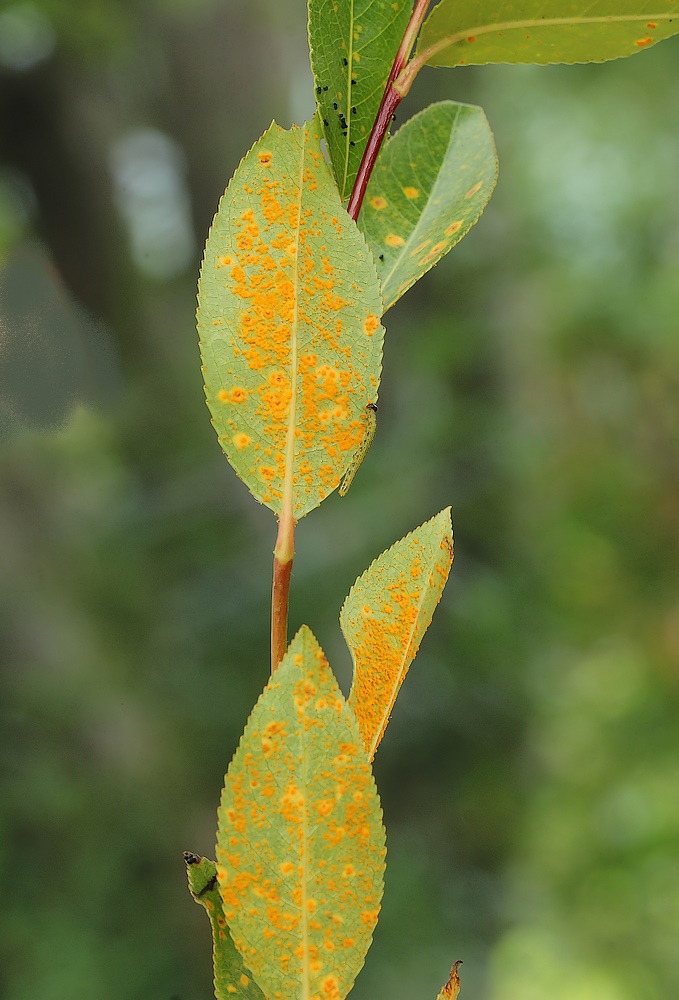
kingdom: Fungi
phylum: Basidiomycota
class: Pucciniomycetes
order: Pucciniales
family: Melampsoraceae
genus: Melampsora
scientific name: Melampsora
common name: skorperust
